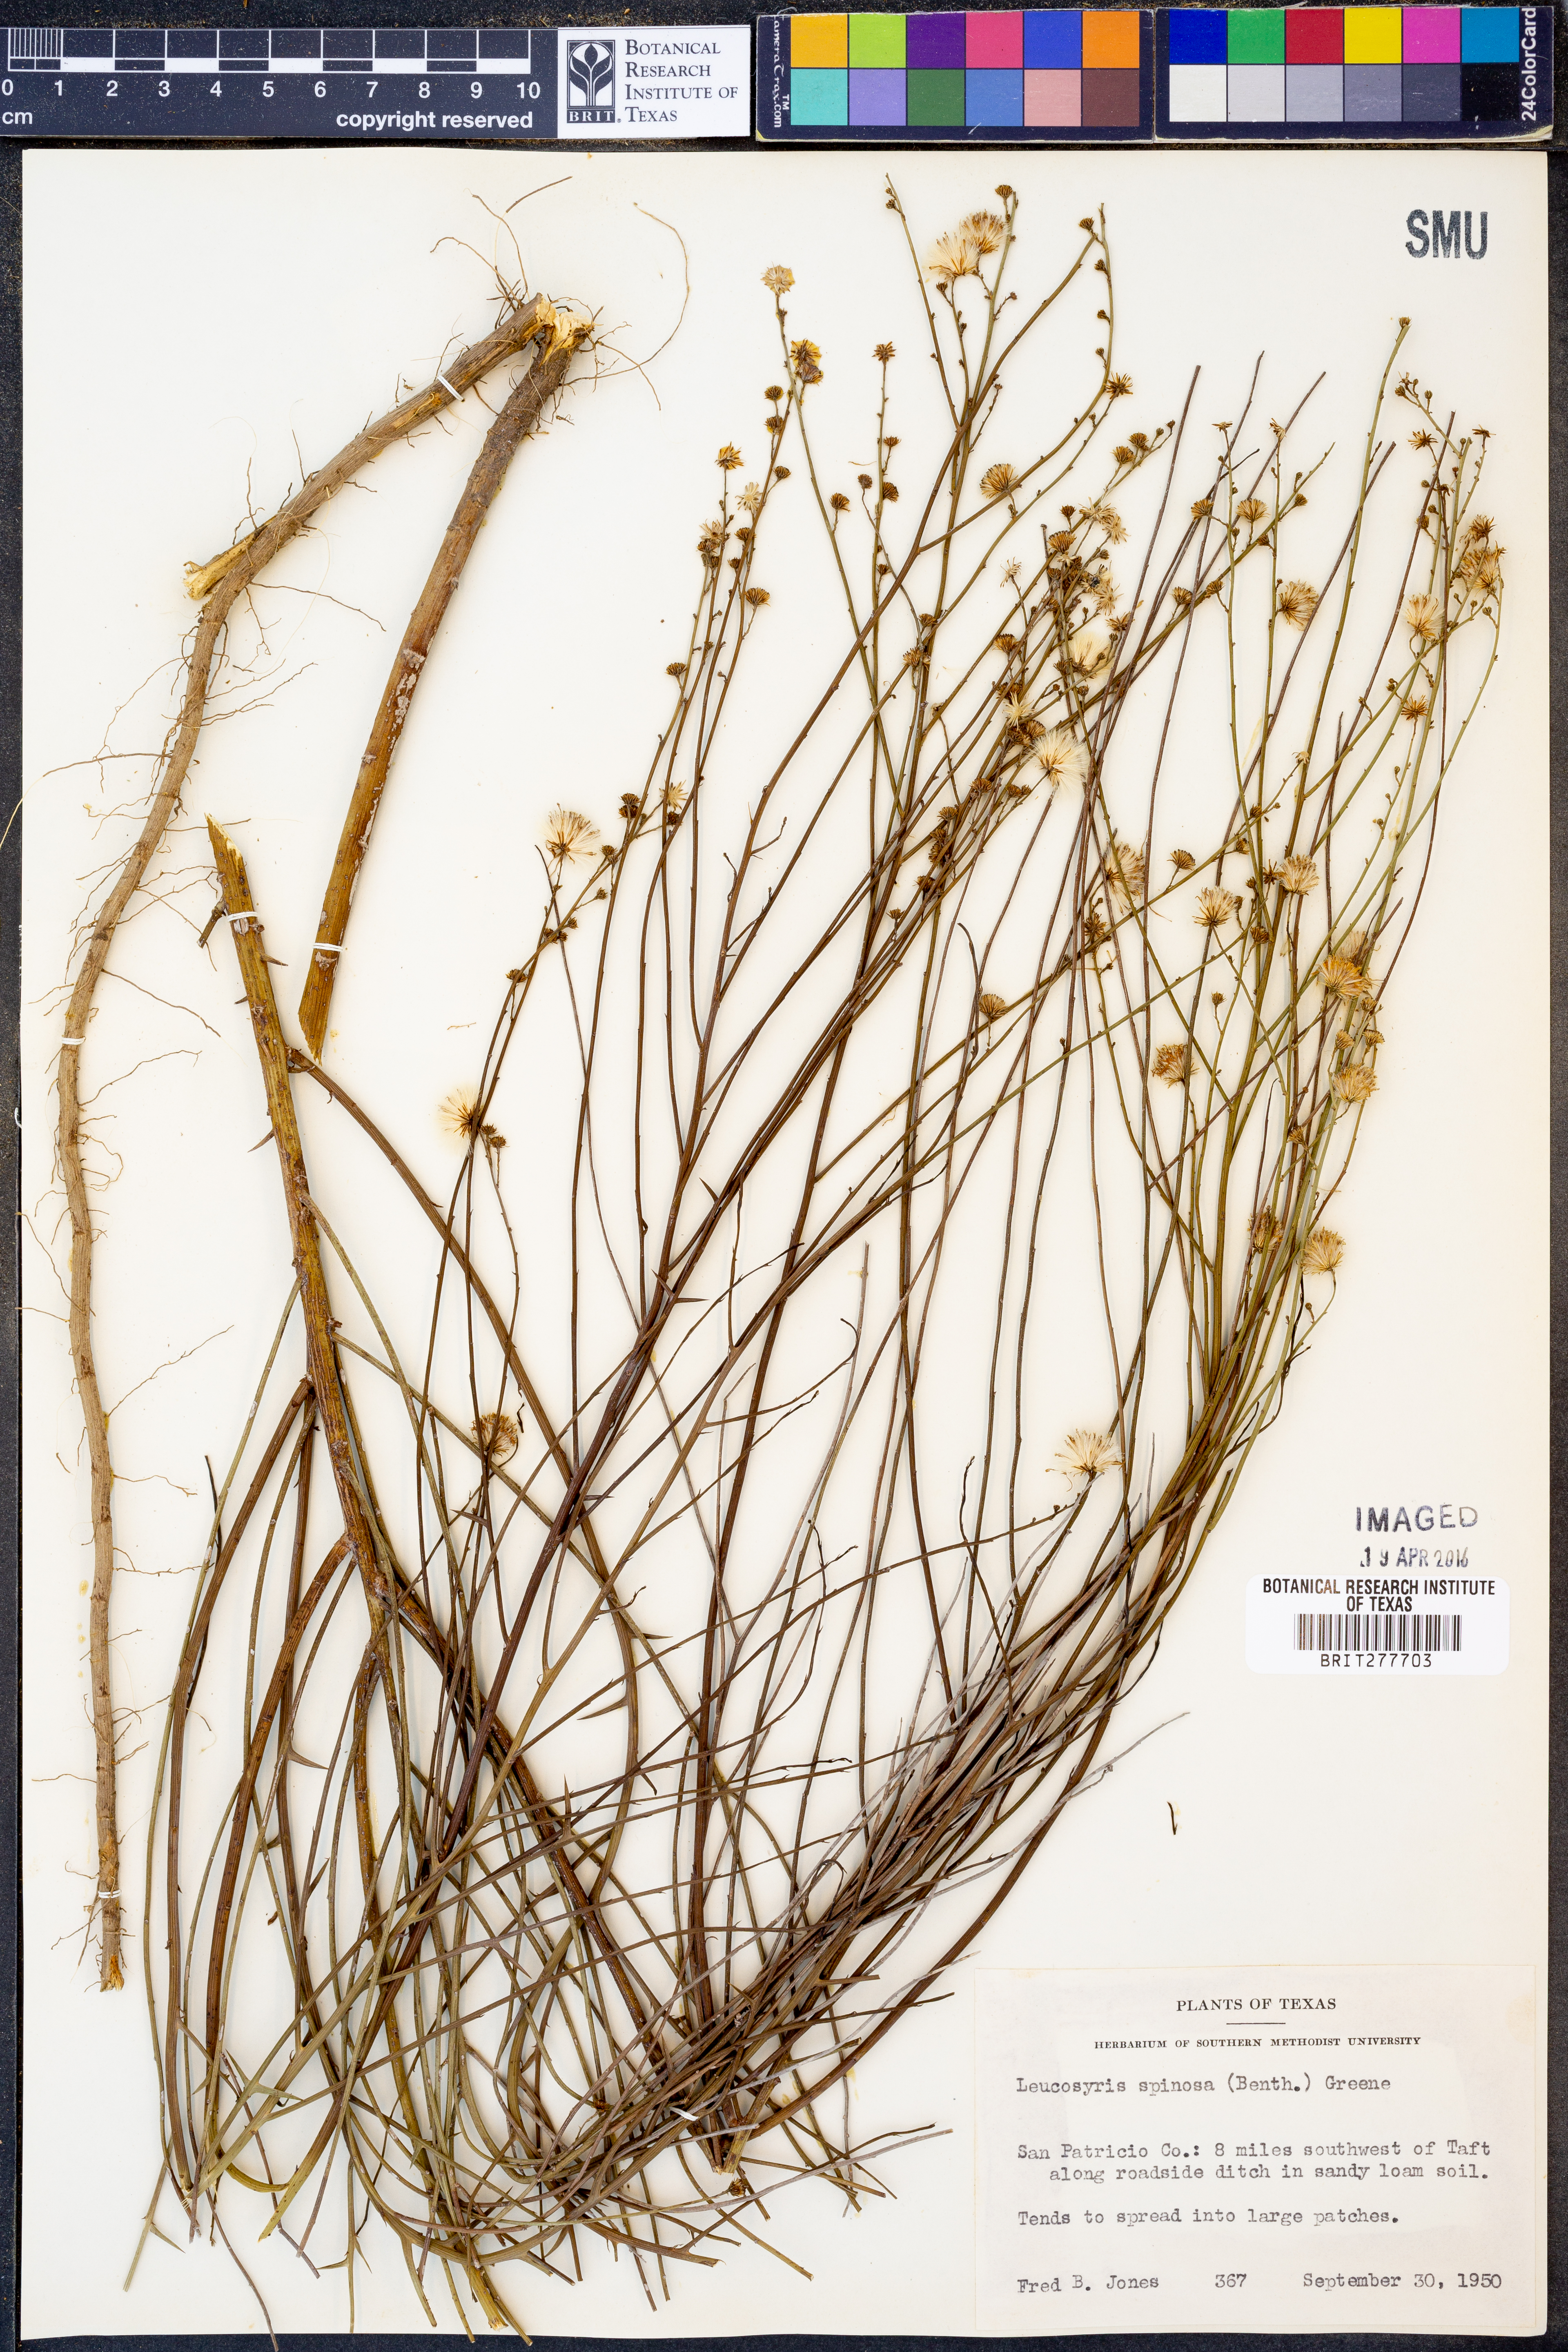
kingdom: Plantae
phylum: Tracheophyta
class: Magnoliopsida
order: Asterales
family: Asteraceae
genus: Chloracantha
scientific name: Chloracantha spinosa
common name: Mexican devilweed
